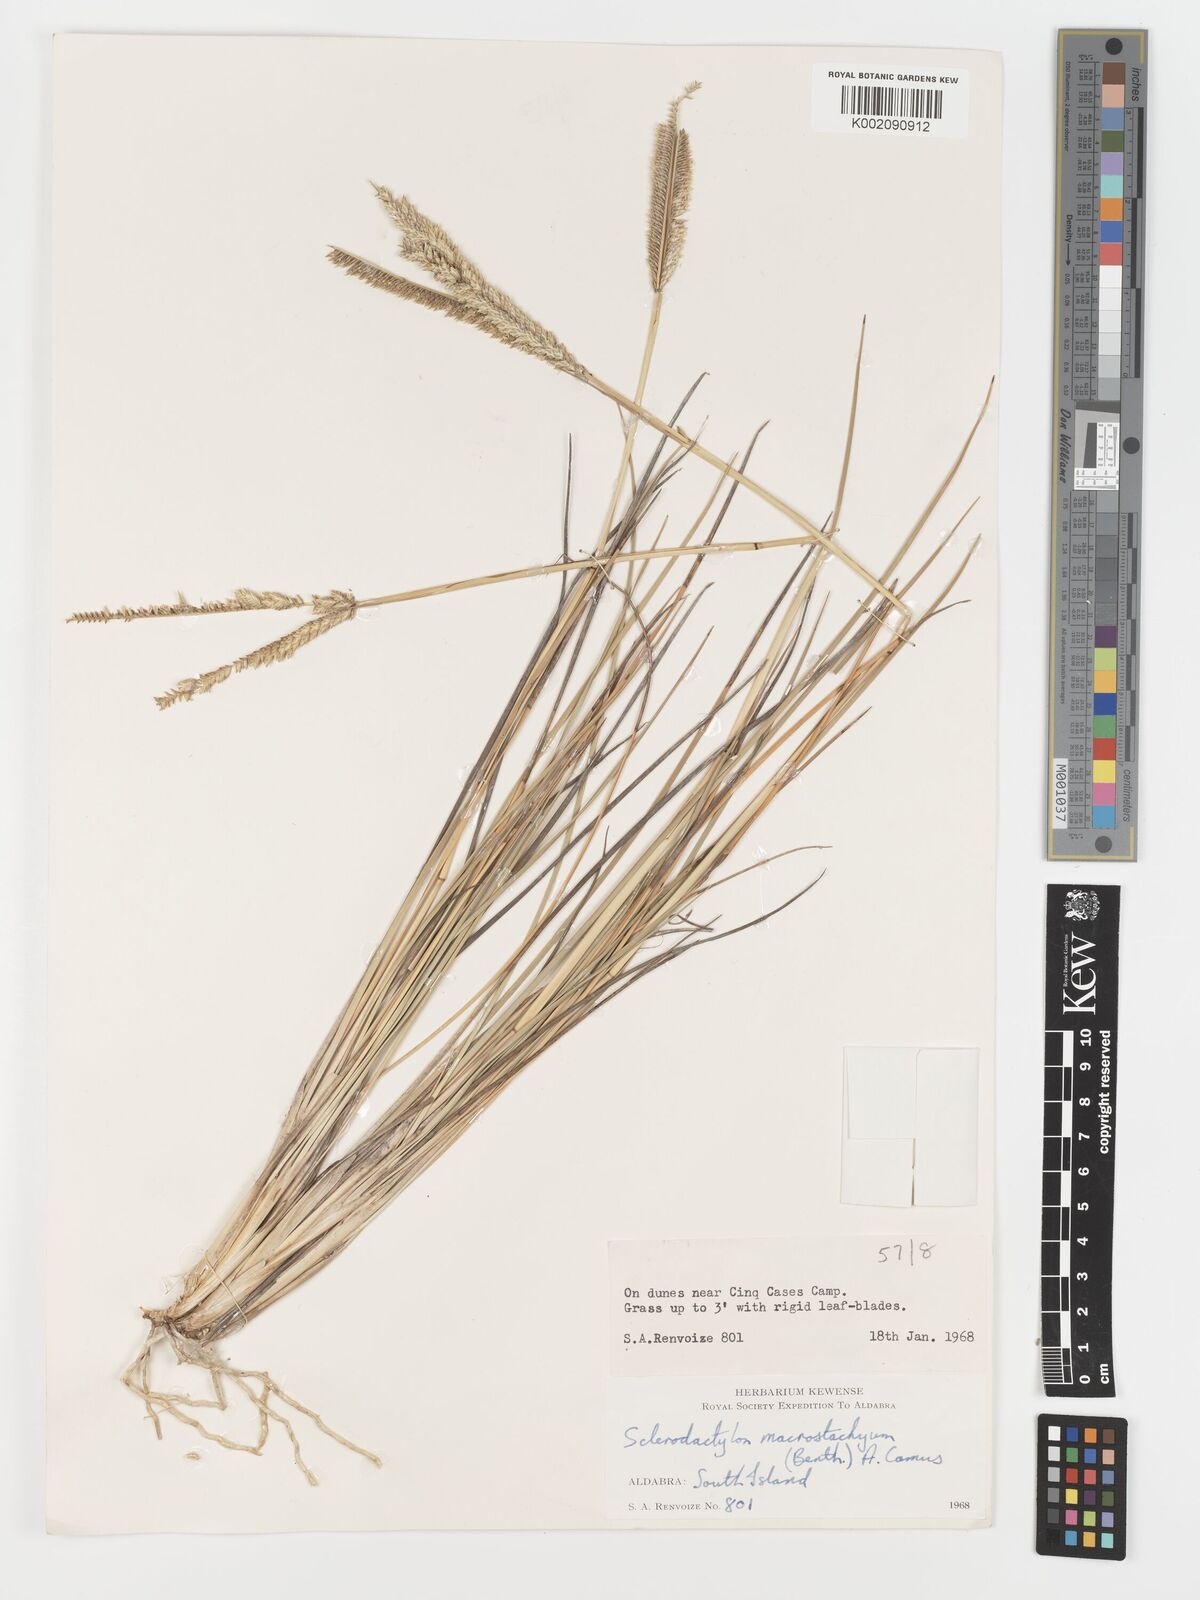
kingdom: Plantae
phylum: Tracheophyta
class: Liliopsida
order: Poales
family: Poaceae
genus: Sclerodactylon
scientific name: Sclerodactylon macrostachyum
